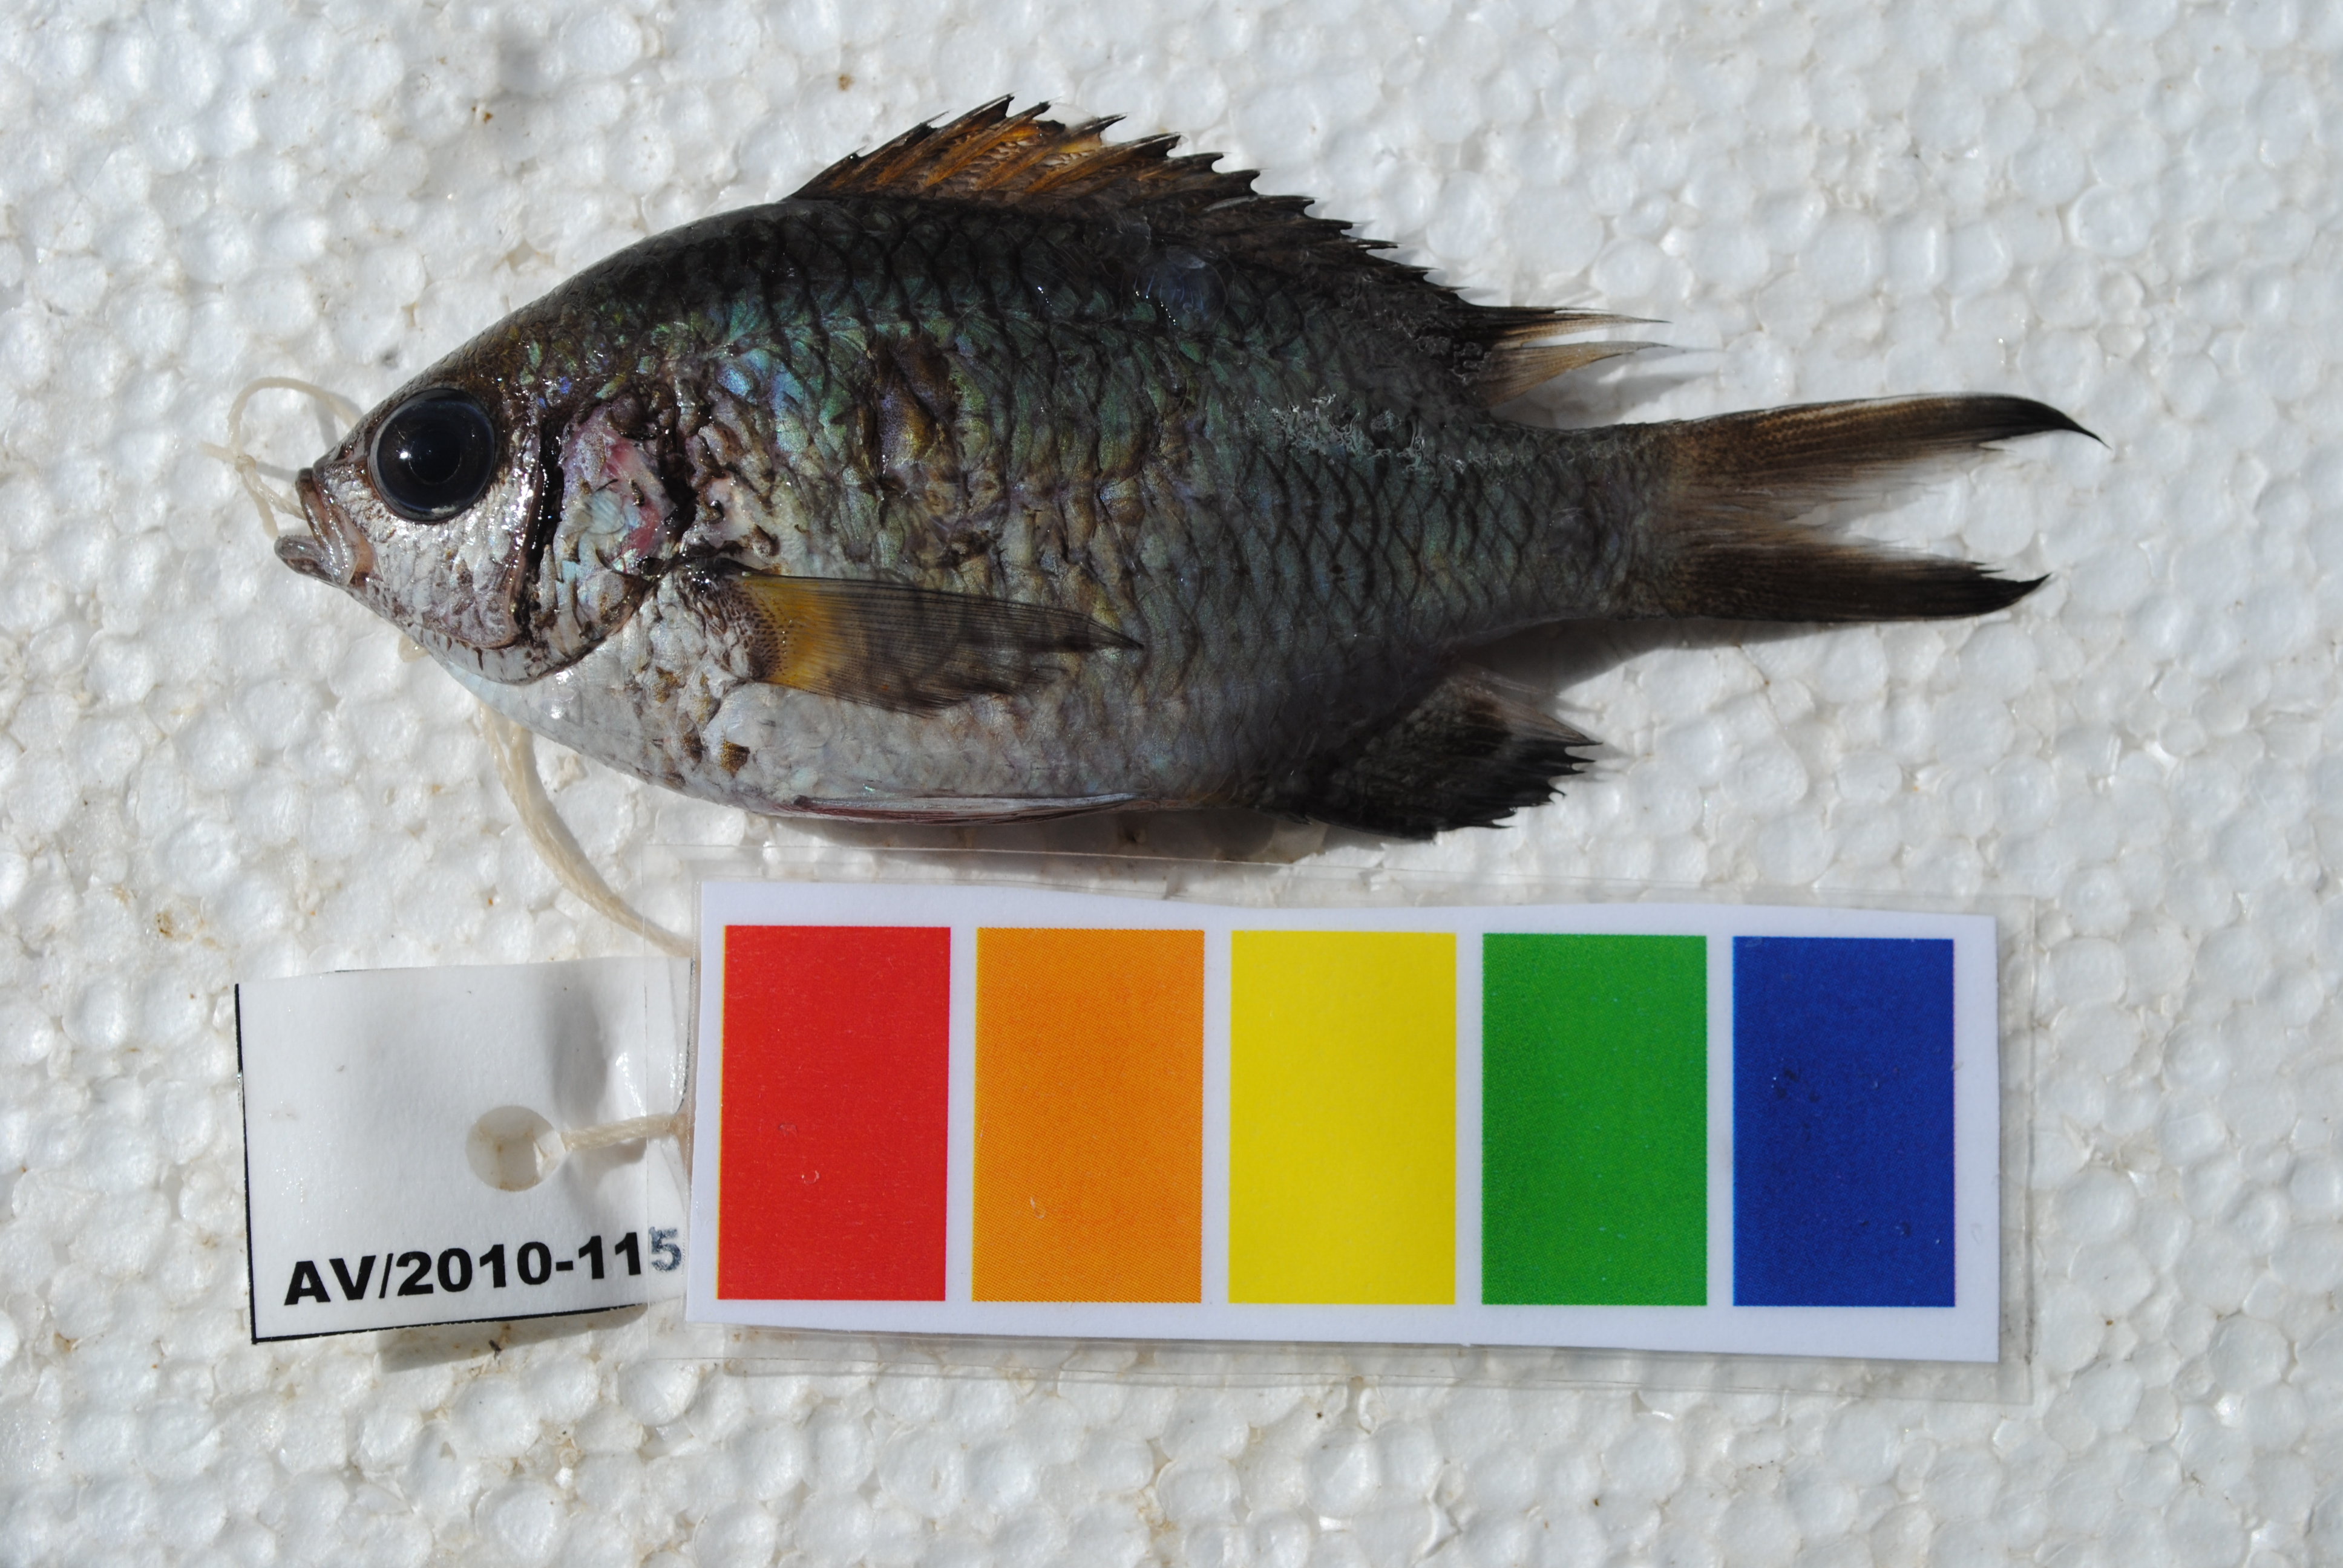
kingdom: Animalia
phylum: Chordata
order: Perciformes
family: Pomacentridae
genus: Chromis
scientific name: Chromis weberi
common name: Weber's chromis
